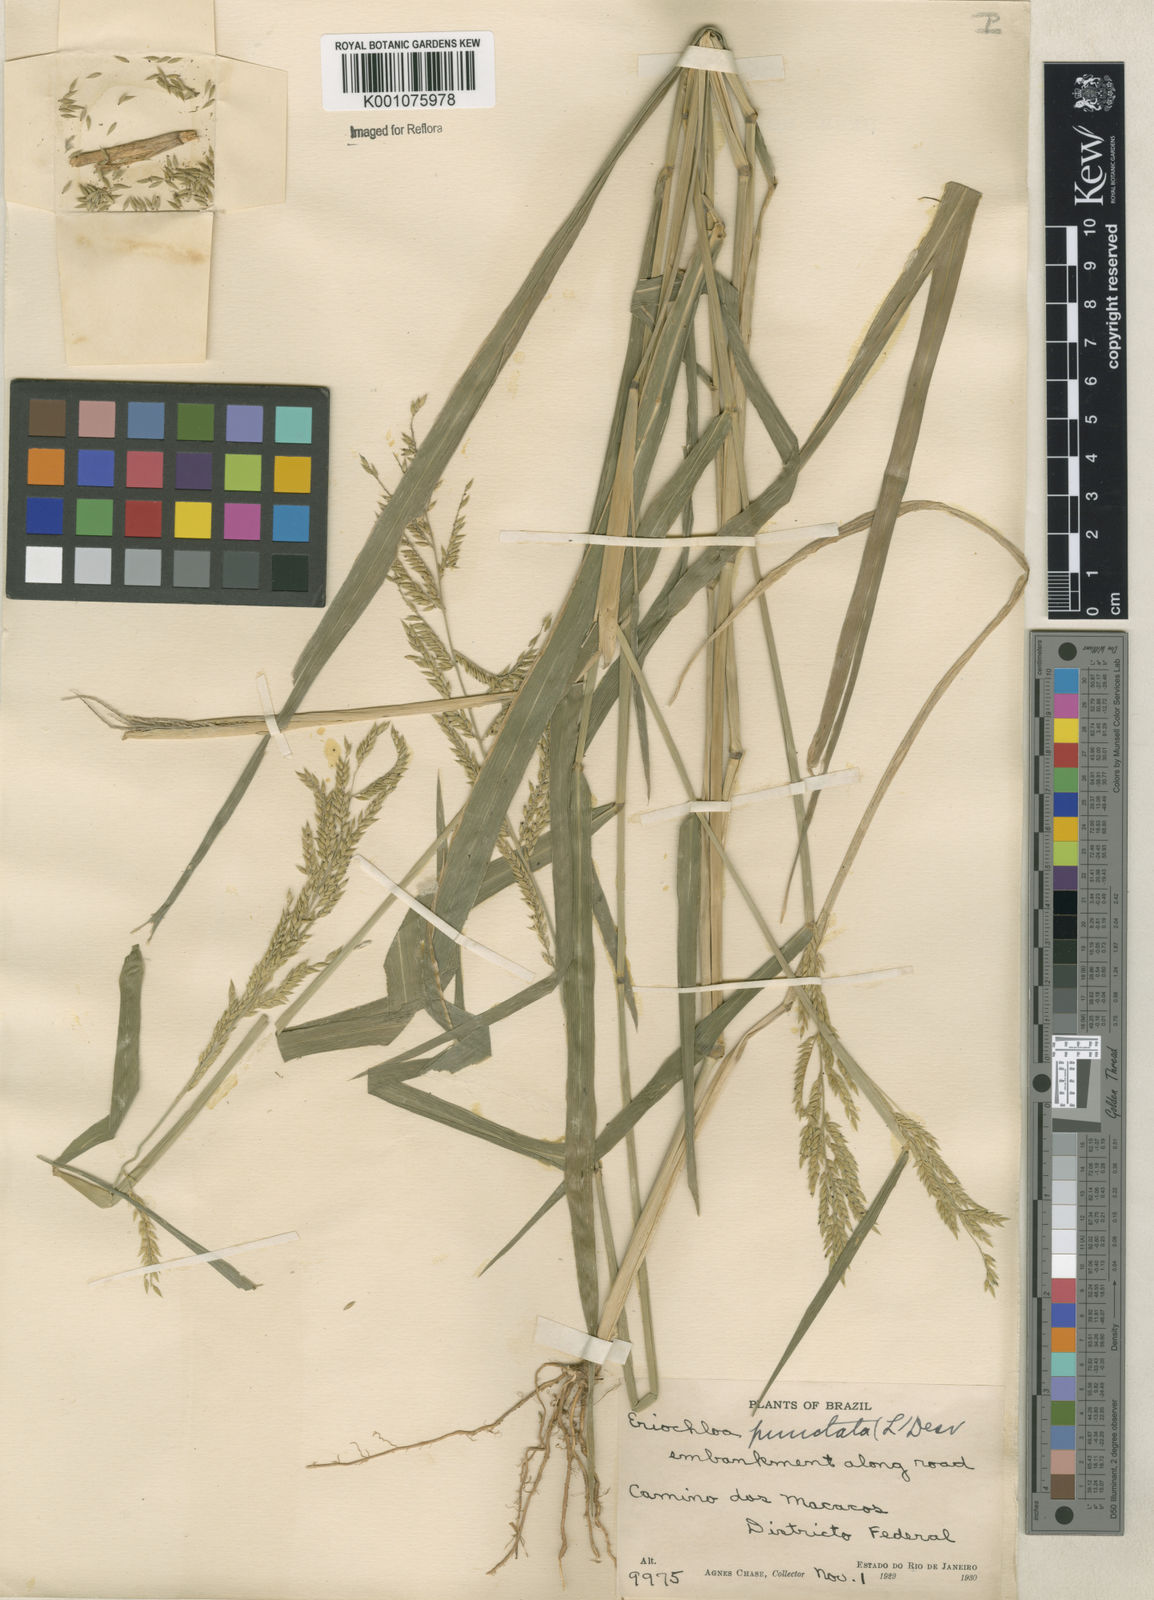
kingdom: Plantae
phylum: Tracheophyta
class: Liliopsida
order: Poales
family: Poaceae
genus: Eriochloa
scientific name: Eriochloa punctata
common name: Louisiana cupgrass
